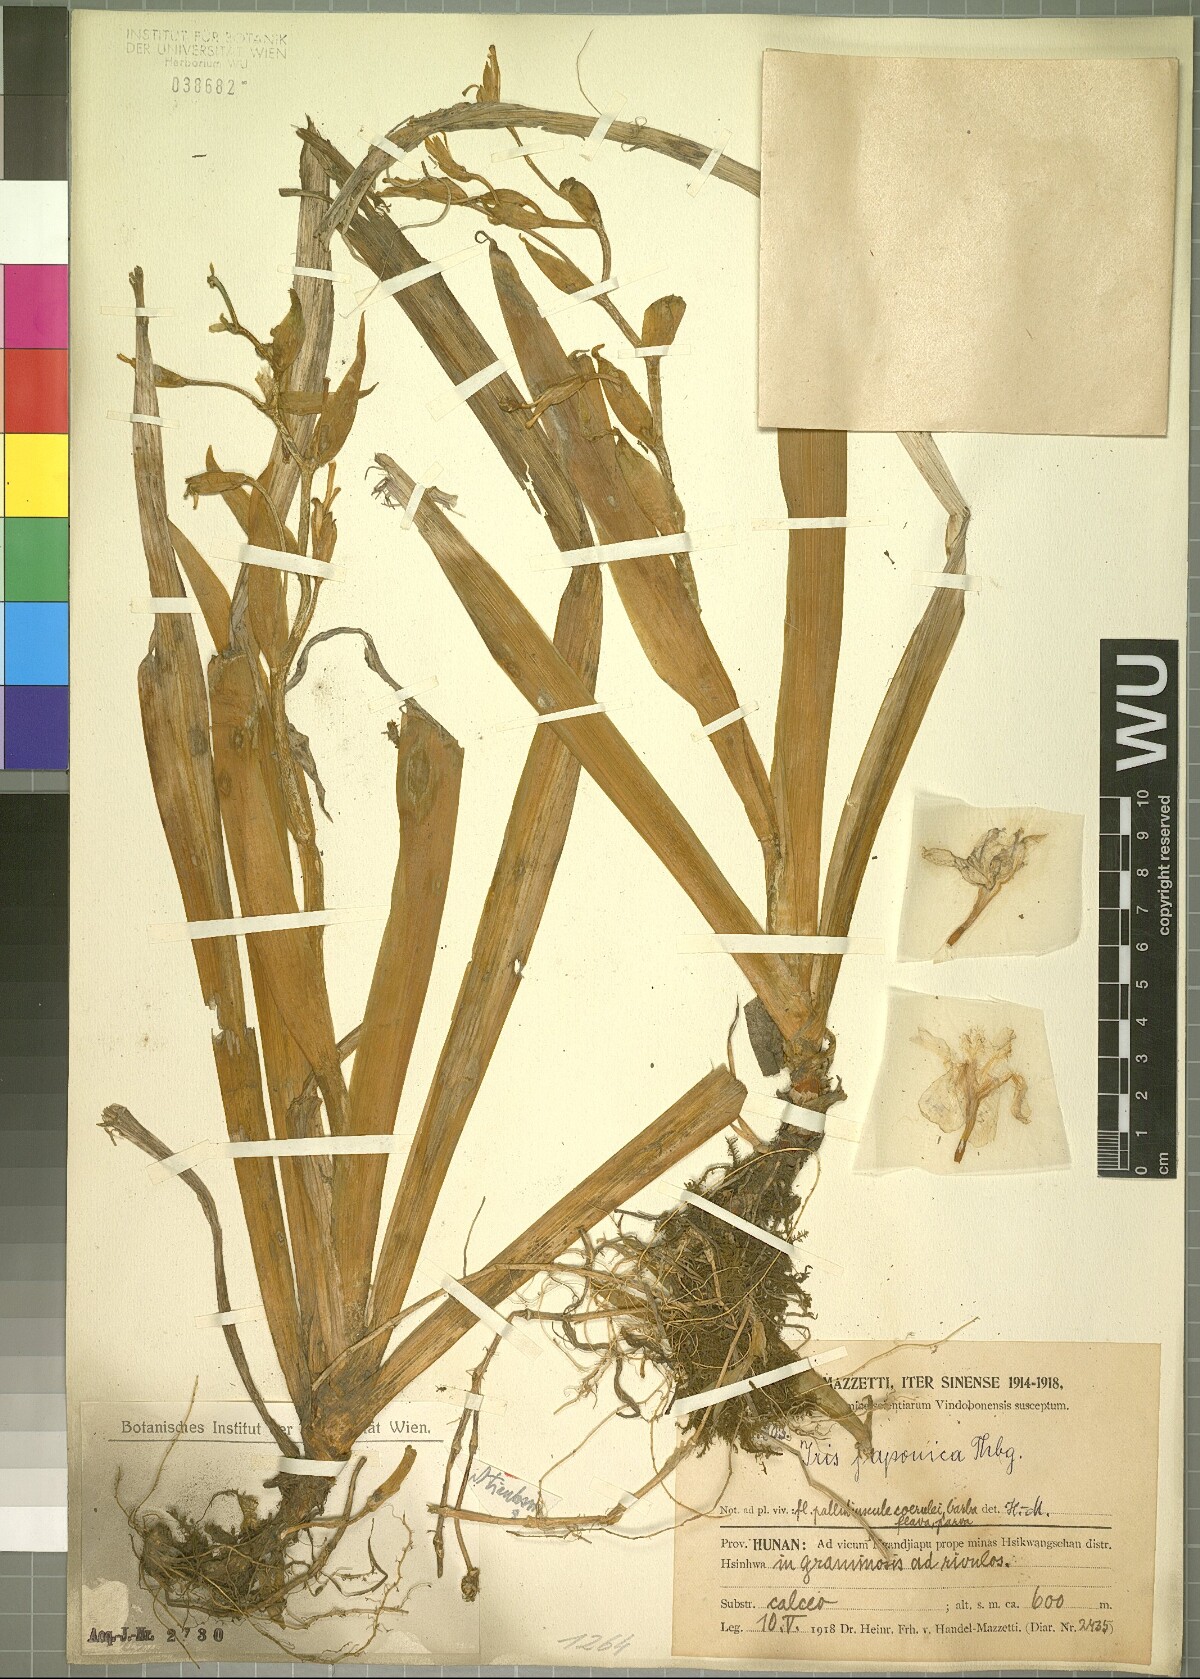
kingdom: Plantae
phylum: Tracheophyta
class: Liliopsida
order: Asparagales
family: Iridaceae
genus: Iris
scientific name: Iris japonica
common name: Butterfly-flower
